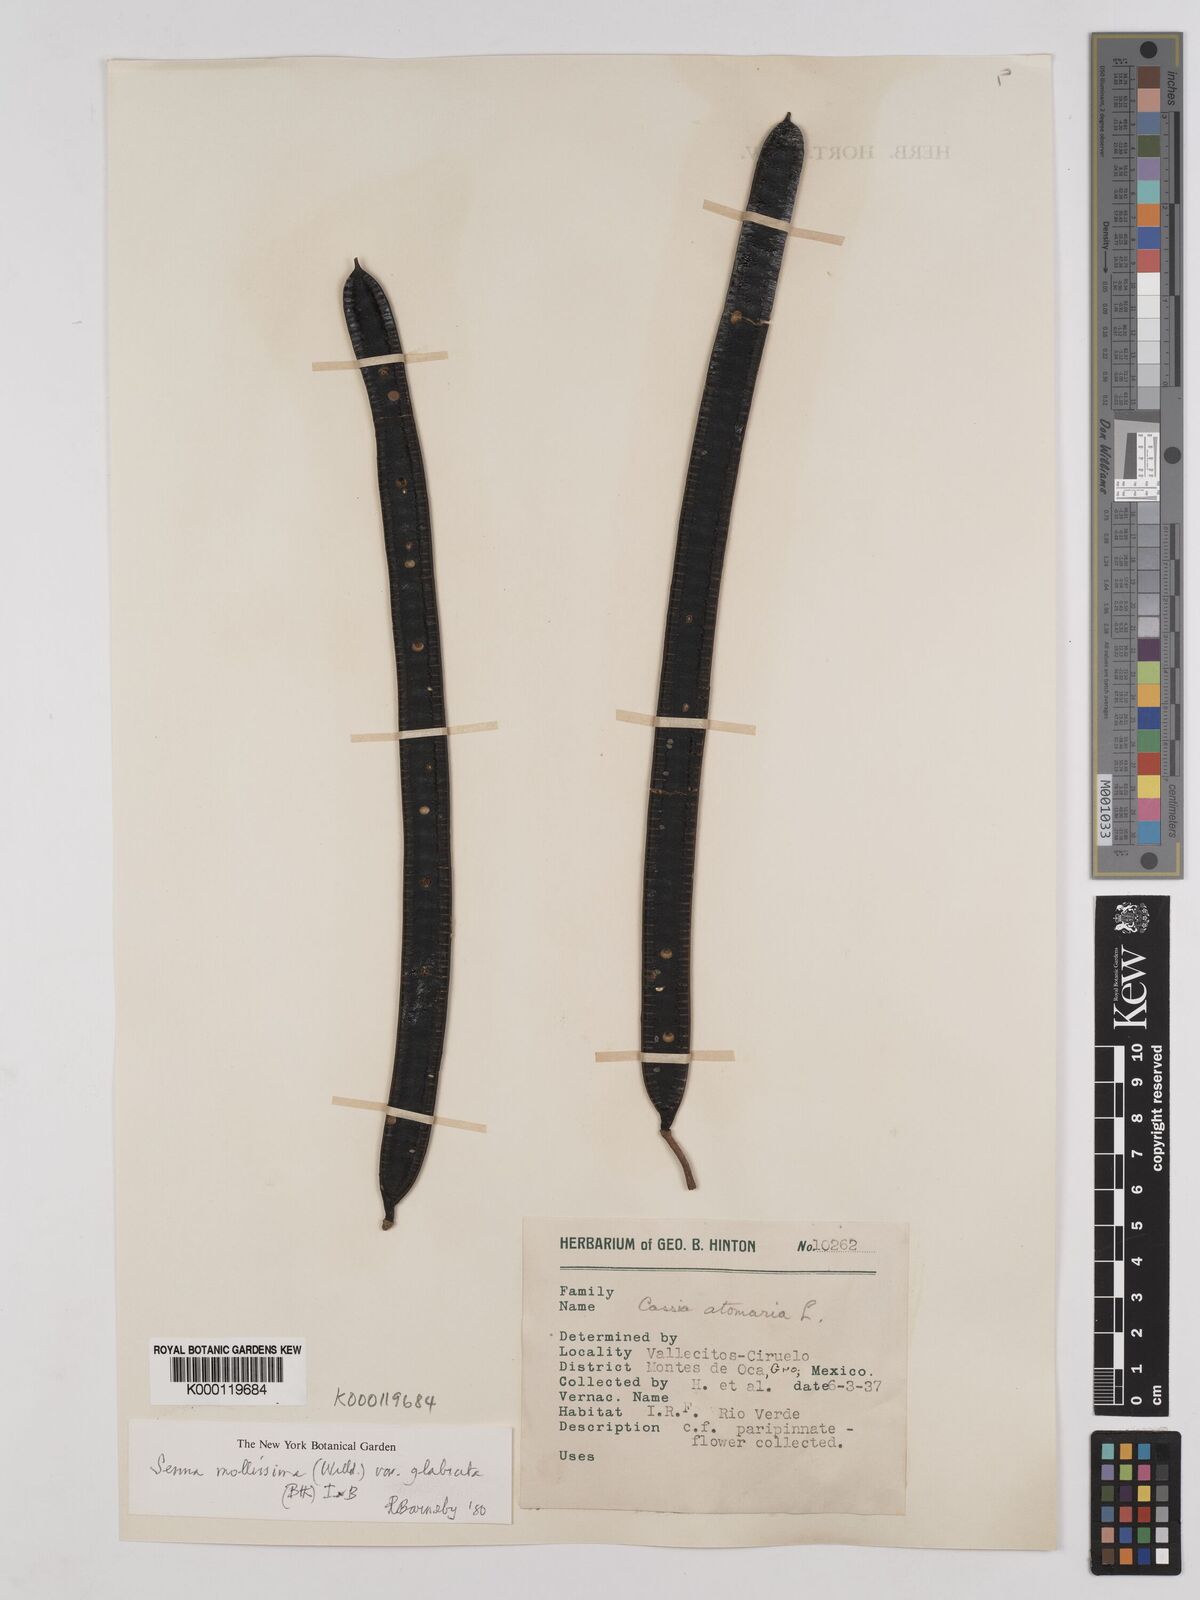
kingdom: Plantae
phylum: Tracheophyta
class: Magnoliopsida
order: Fabales
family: Fabaceae
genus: Senna
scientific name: Senna mollissima
